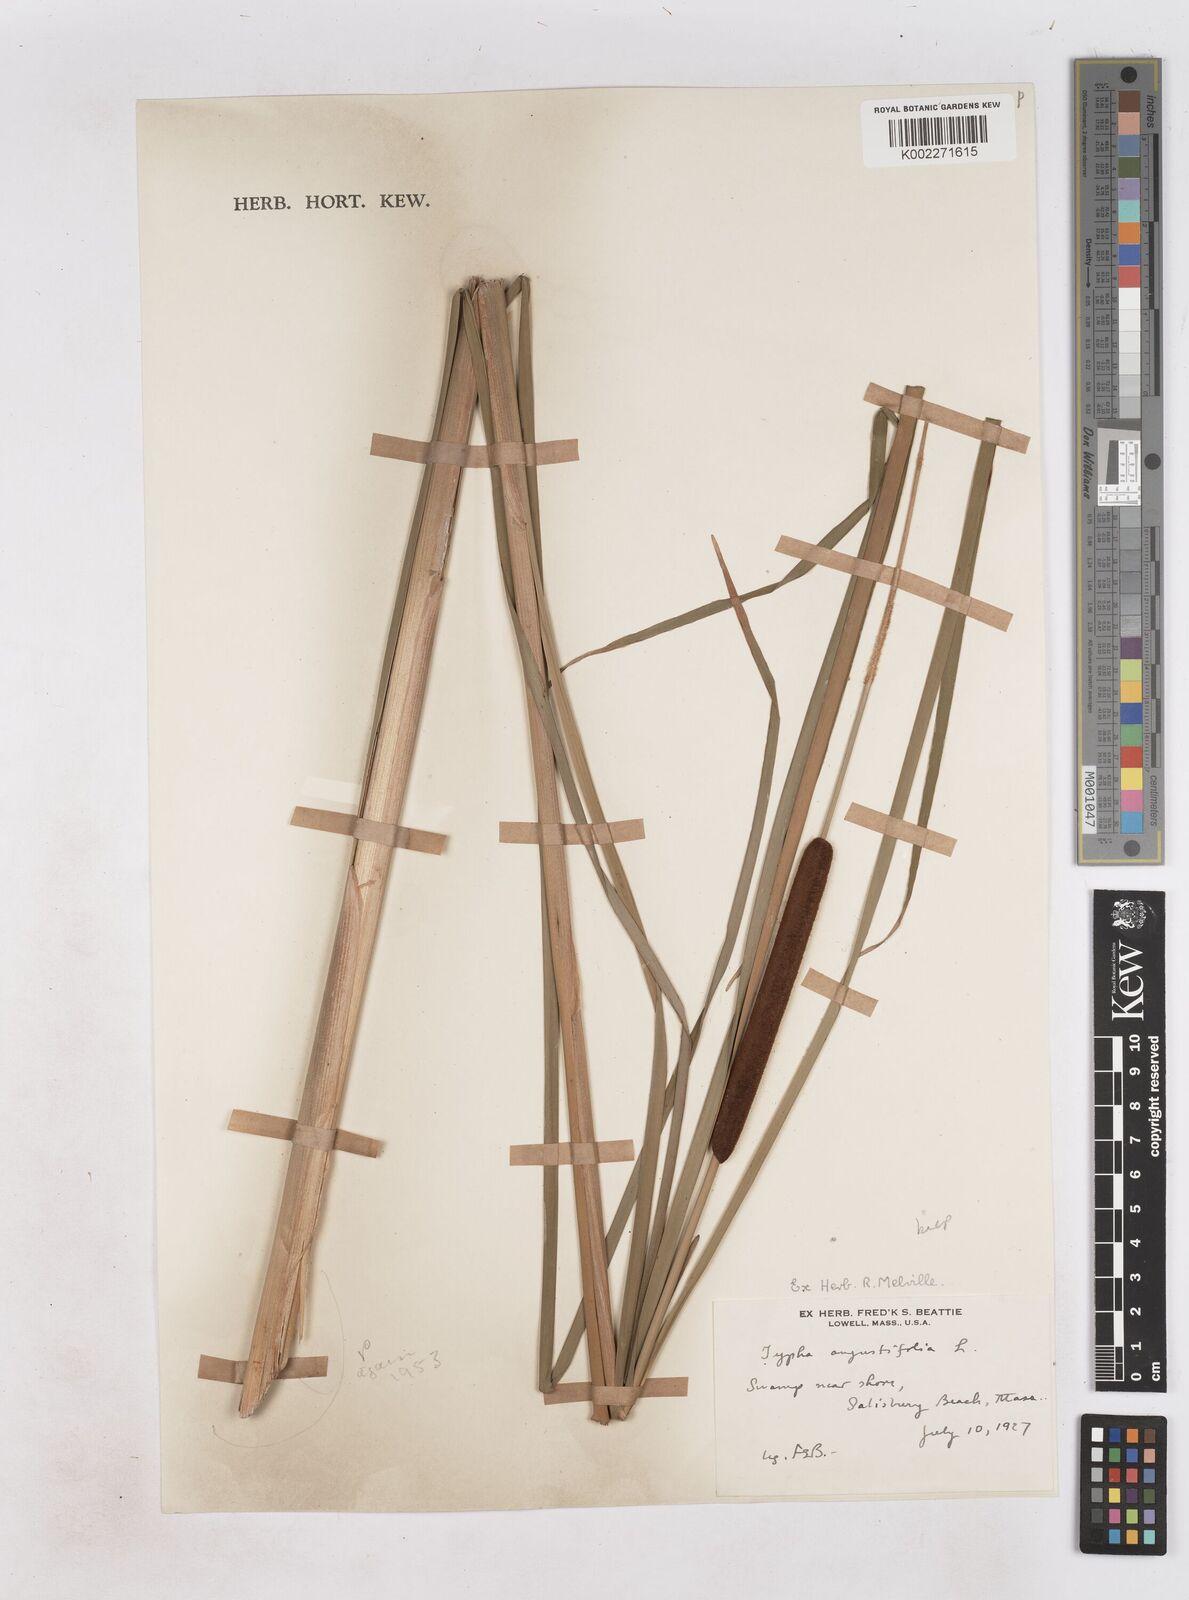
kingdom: Plantae
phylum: Tracheophyta
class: Liliopsida
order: Poales
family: Typhaceae
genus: Typha
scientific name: Typha angustifolia
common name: Lesser bulrush
